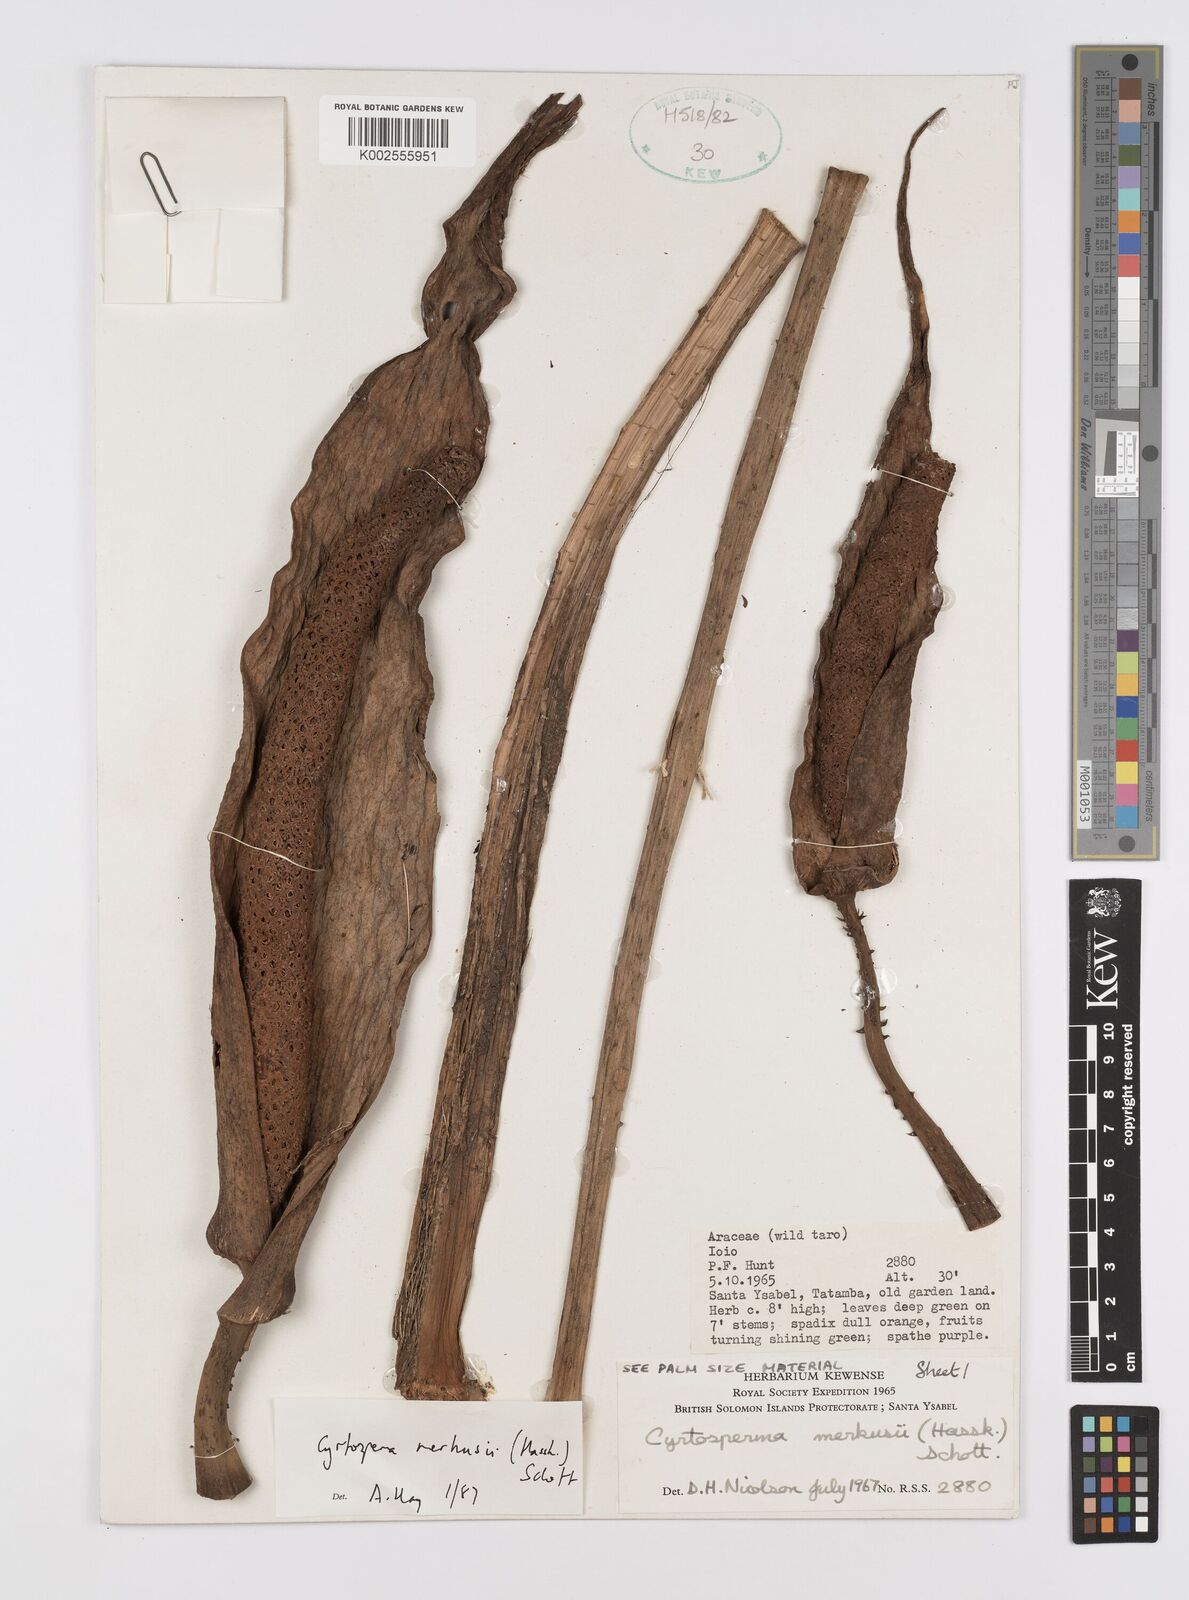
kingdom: Plantae
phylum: Tracheophyta
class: Liliopsida
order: Alismatales
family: Araceae
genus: Cyrtosperma
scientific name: Cyrtosperma merkusii
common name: Giant swamp-taro
